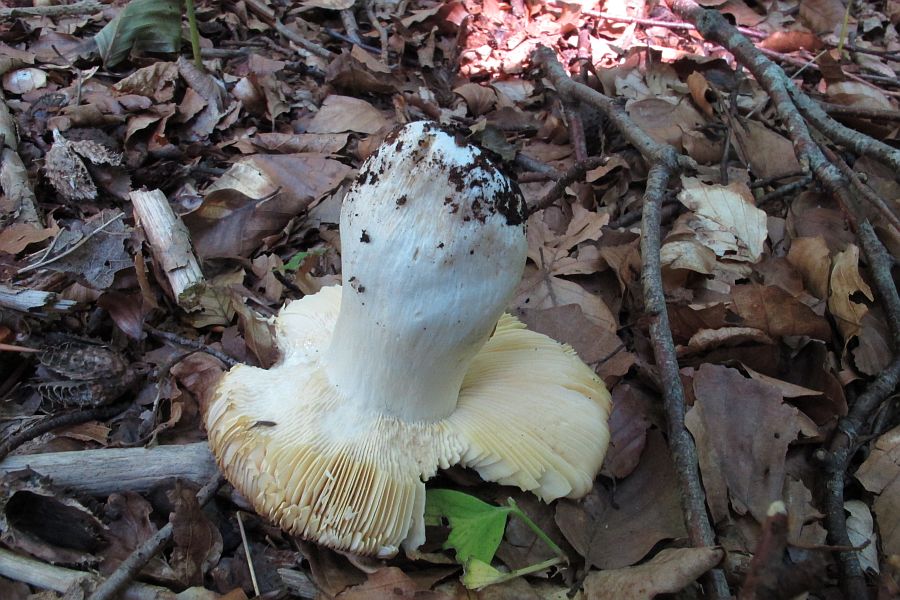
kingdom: Fungi
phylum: Basidiomycota
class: Agaricomycetes
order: Russulales
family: Russulaceae
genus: Russula
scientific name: Russula brunneoviolacea
